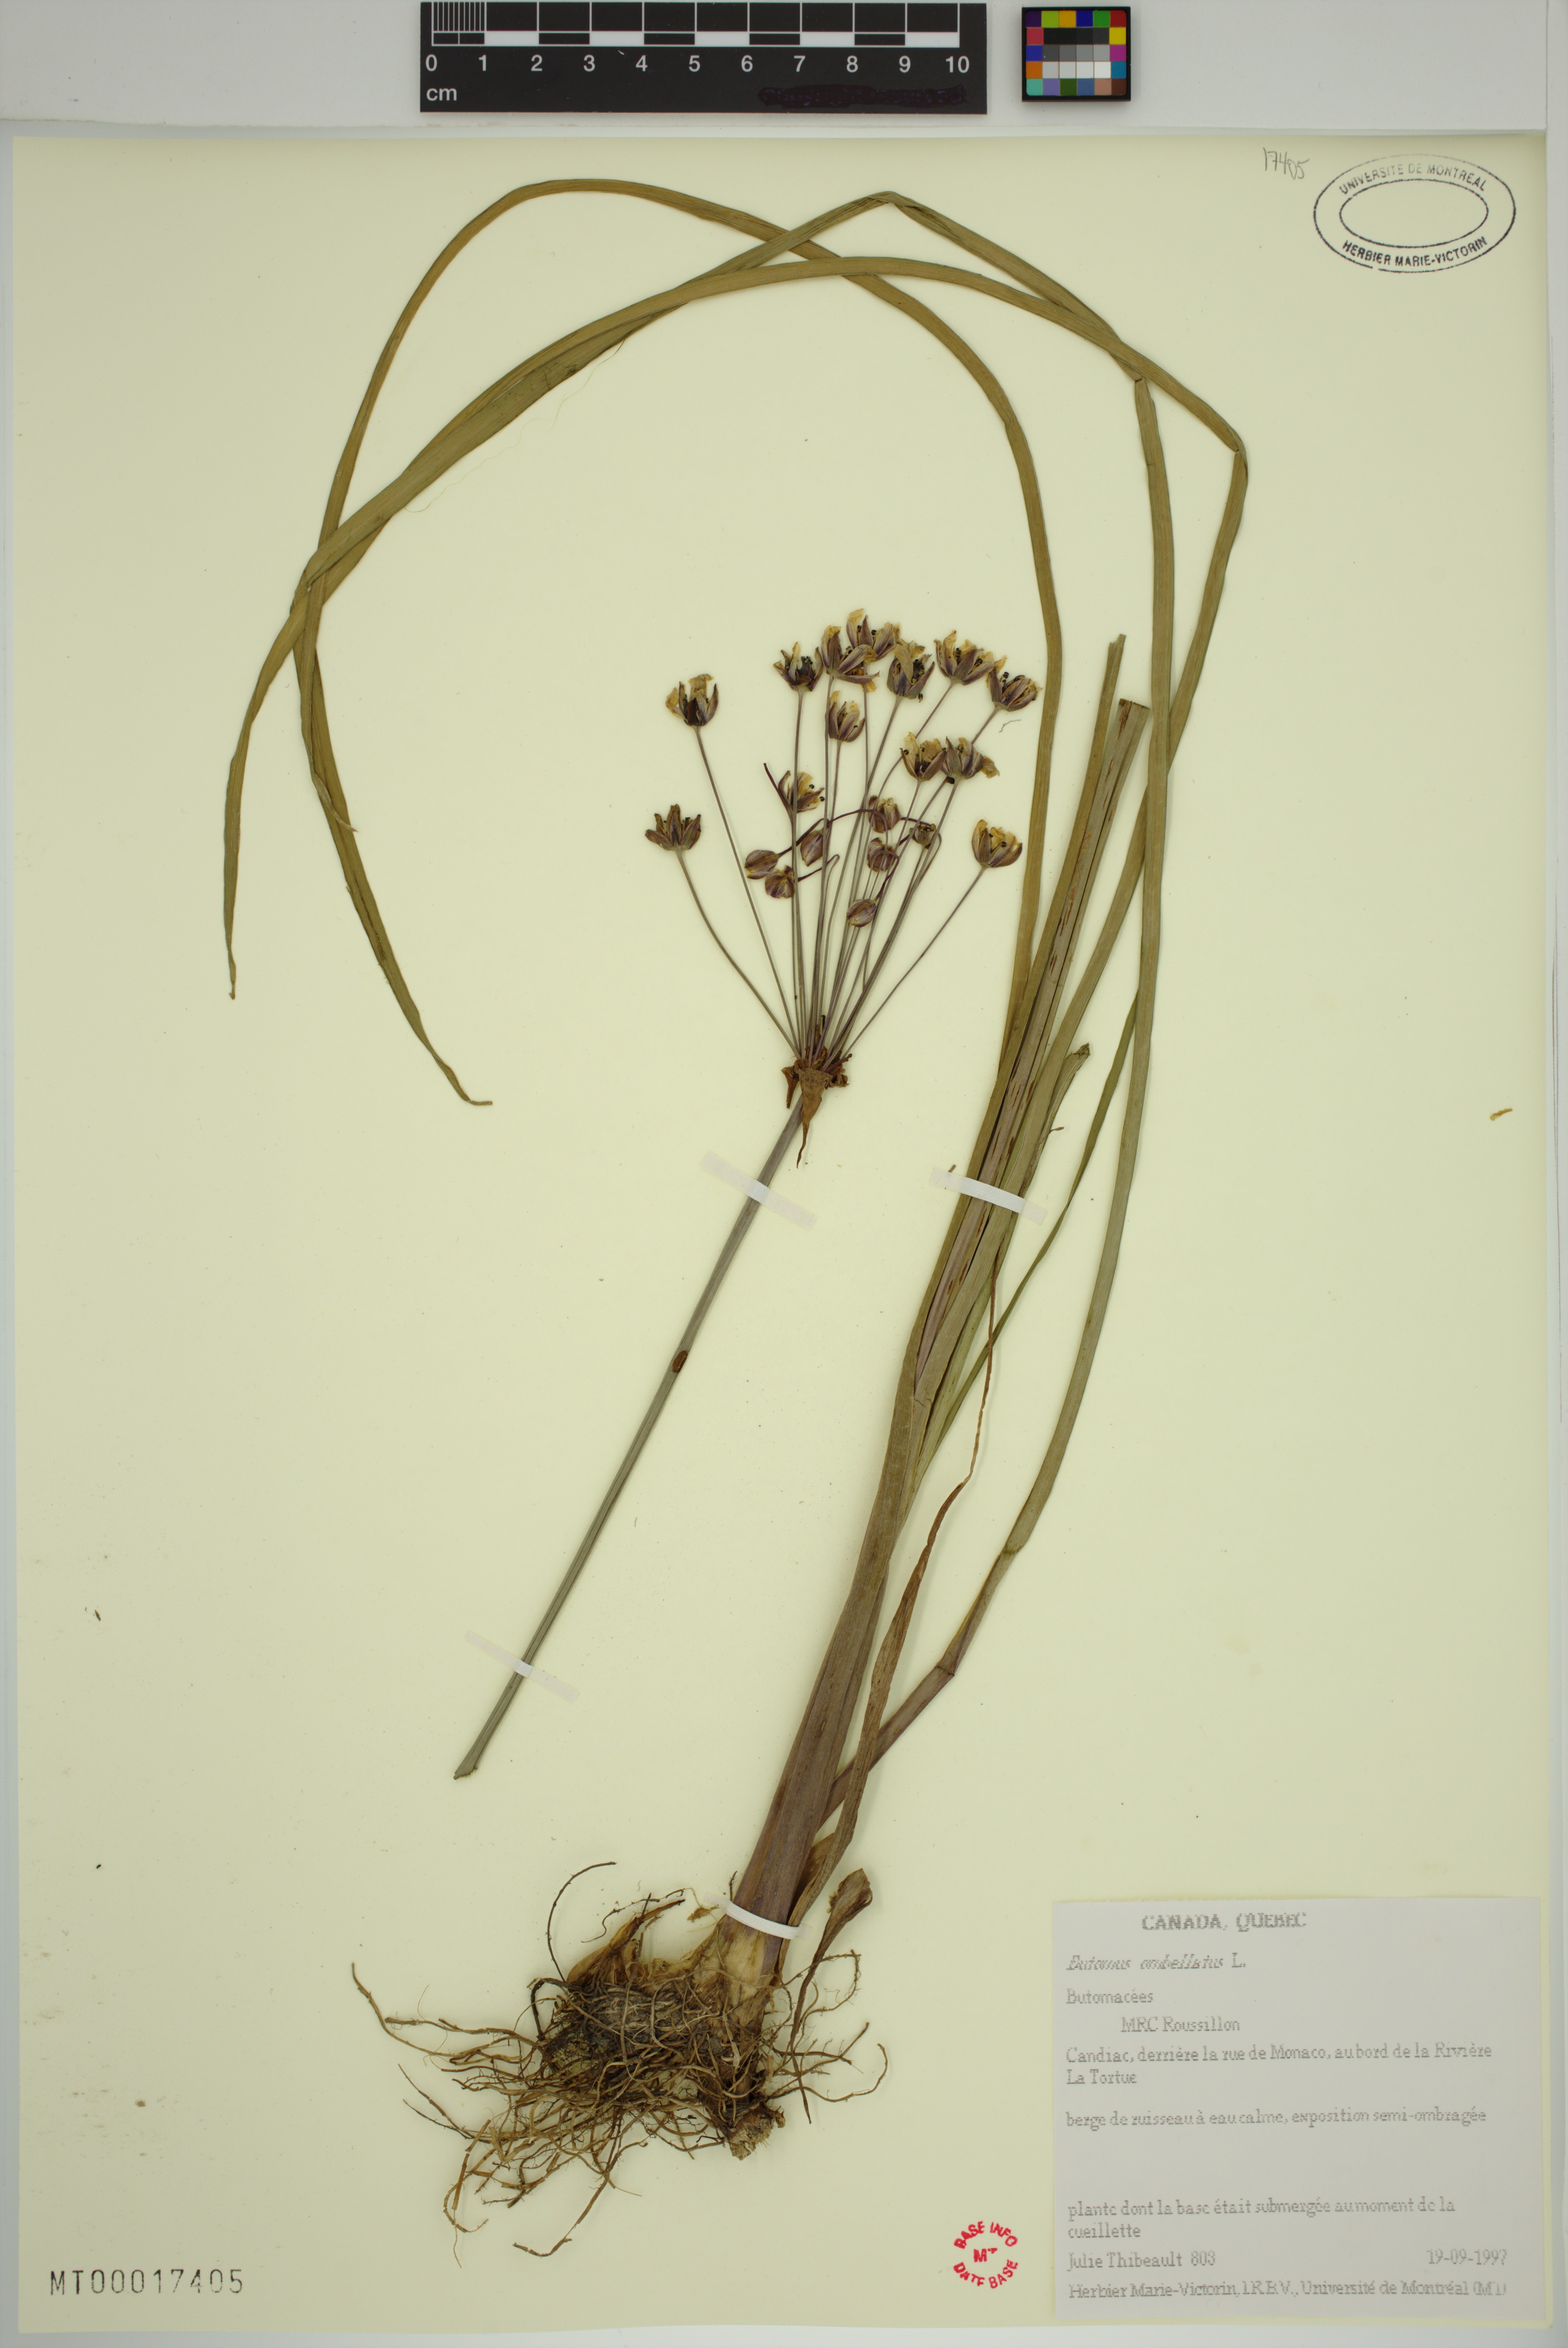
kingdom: Plantae
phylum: Tracheophyta
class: Liliopsida
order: Alismatales
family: Butomaceae
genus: Butomus
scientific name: Butomus umbellatus
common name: Flowering-rush
